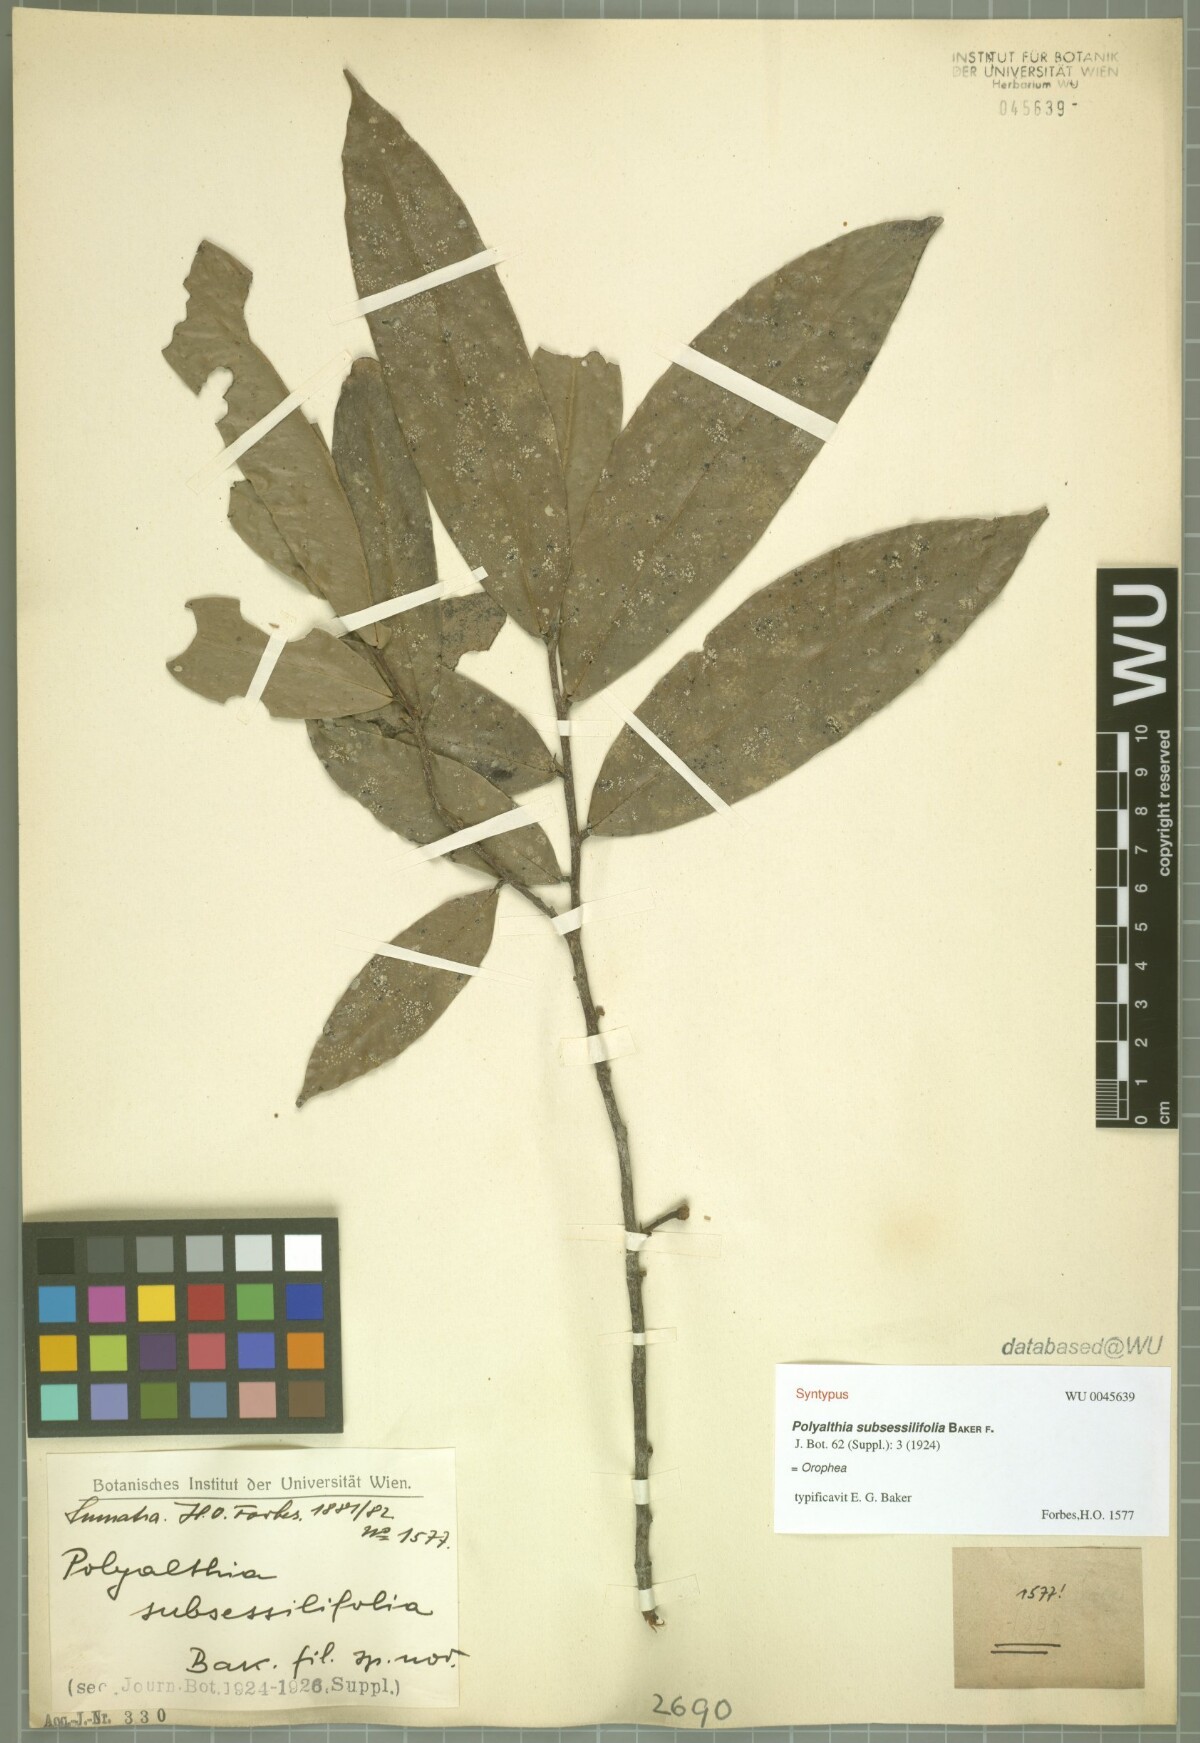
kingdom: Plantae
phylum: Tracheophyta
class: Magnoliopsida
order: Magnoliales
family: Annonaceae
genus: Polyalthia
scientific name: Polyalthia obliqua
